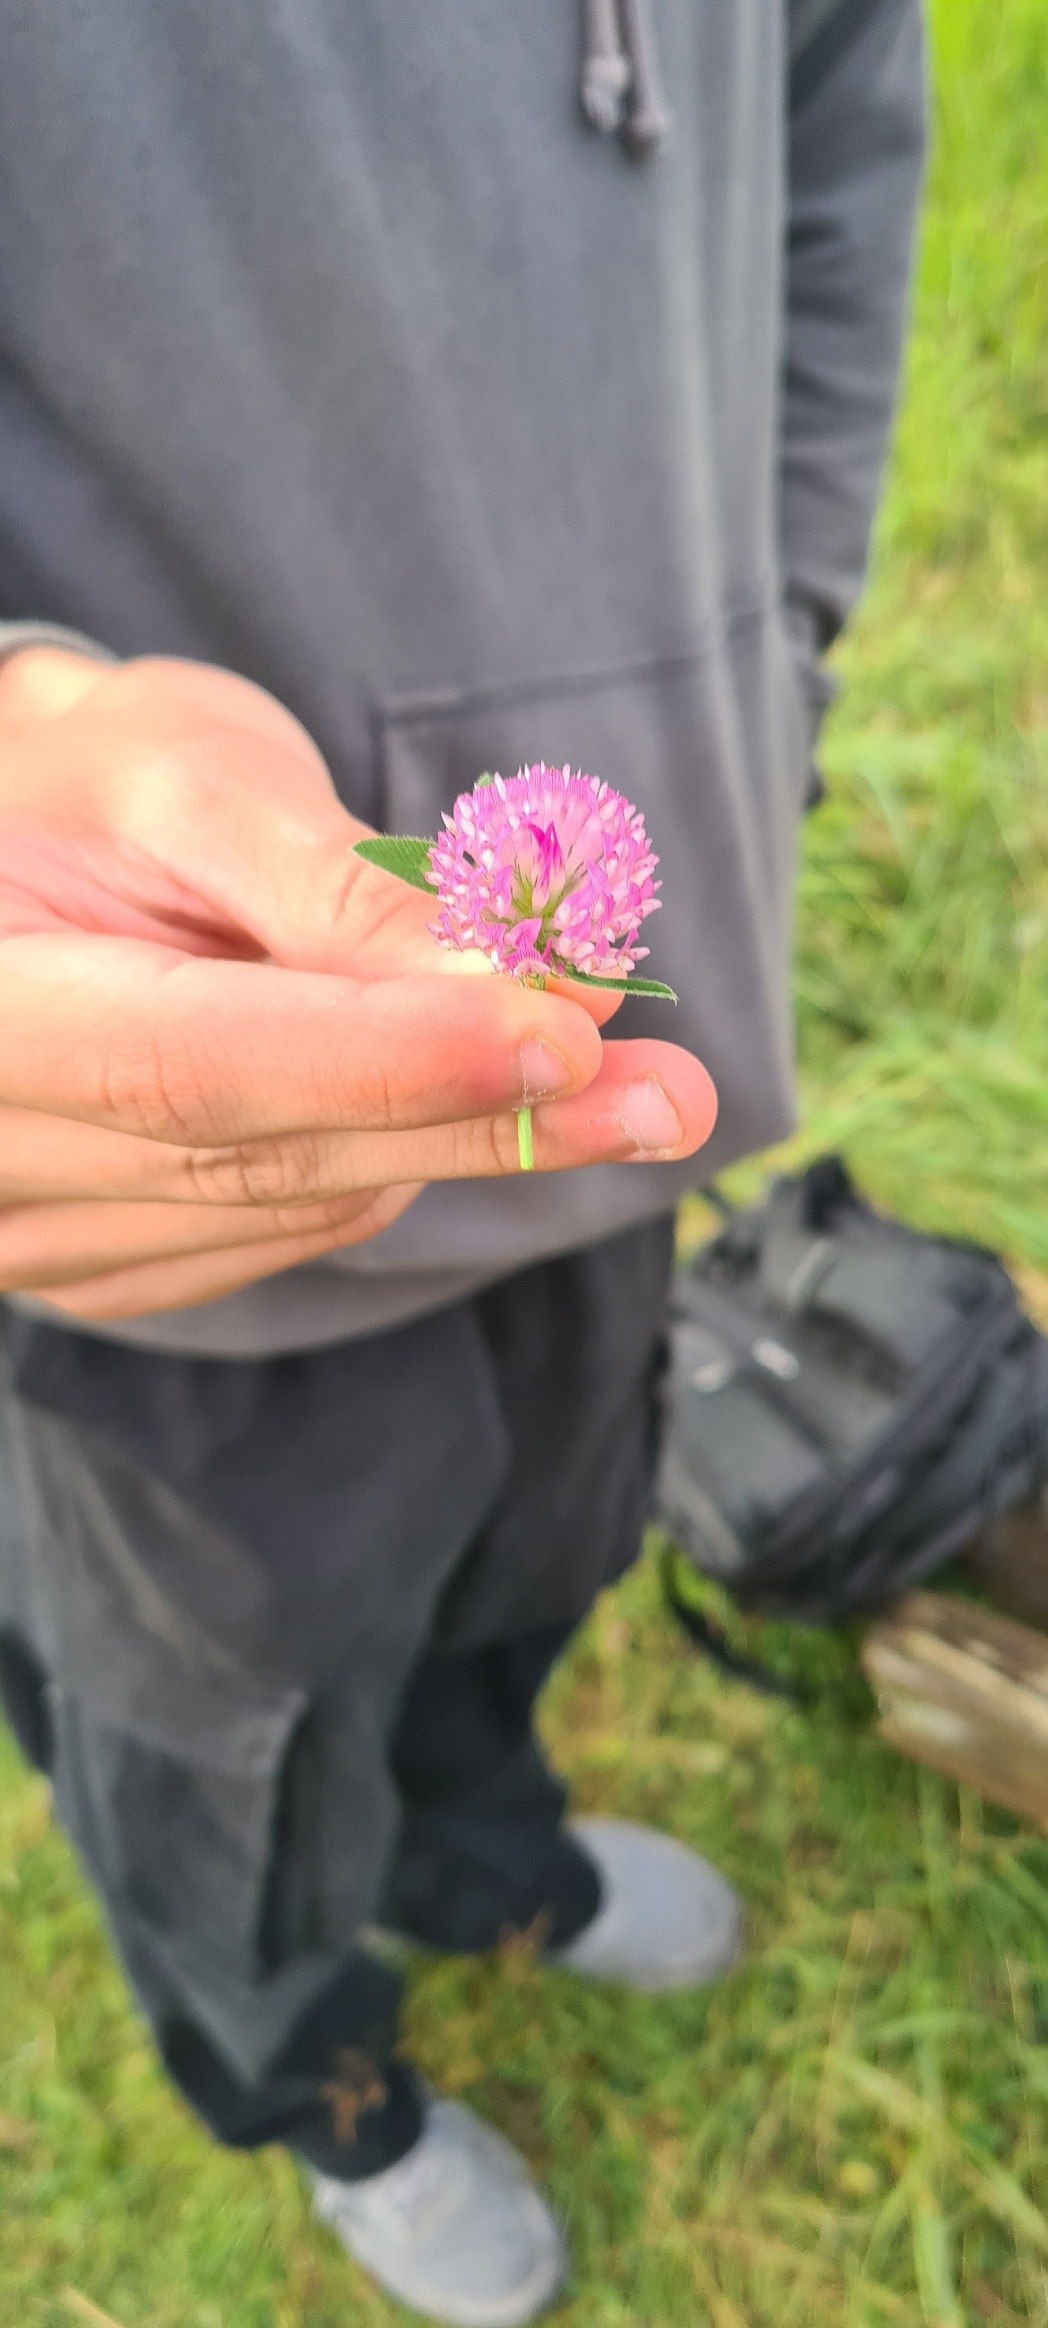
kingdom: Plantae
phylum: Tracheophyta
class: Magnoliopsida
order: Fabales
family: Fabaceae
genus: Trifolium
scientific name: Trifolium pratense
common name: Rød-kløver
